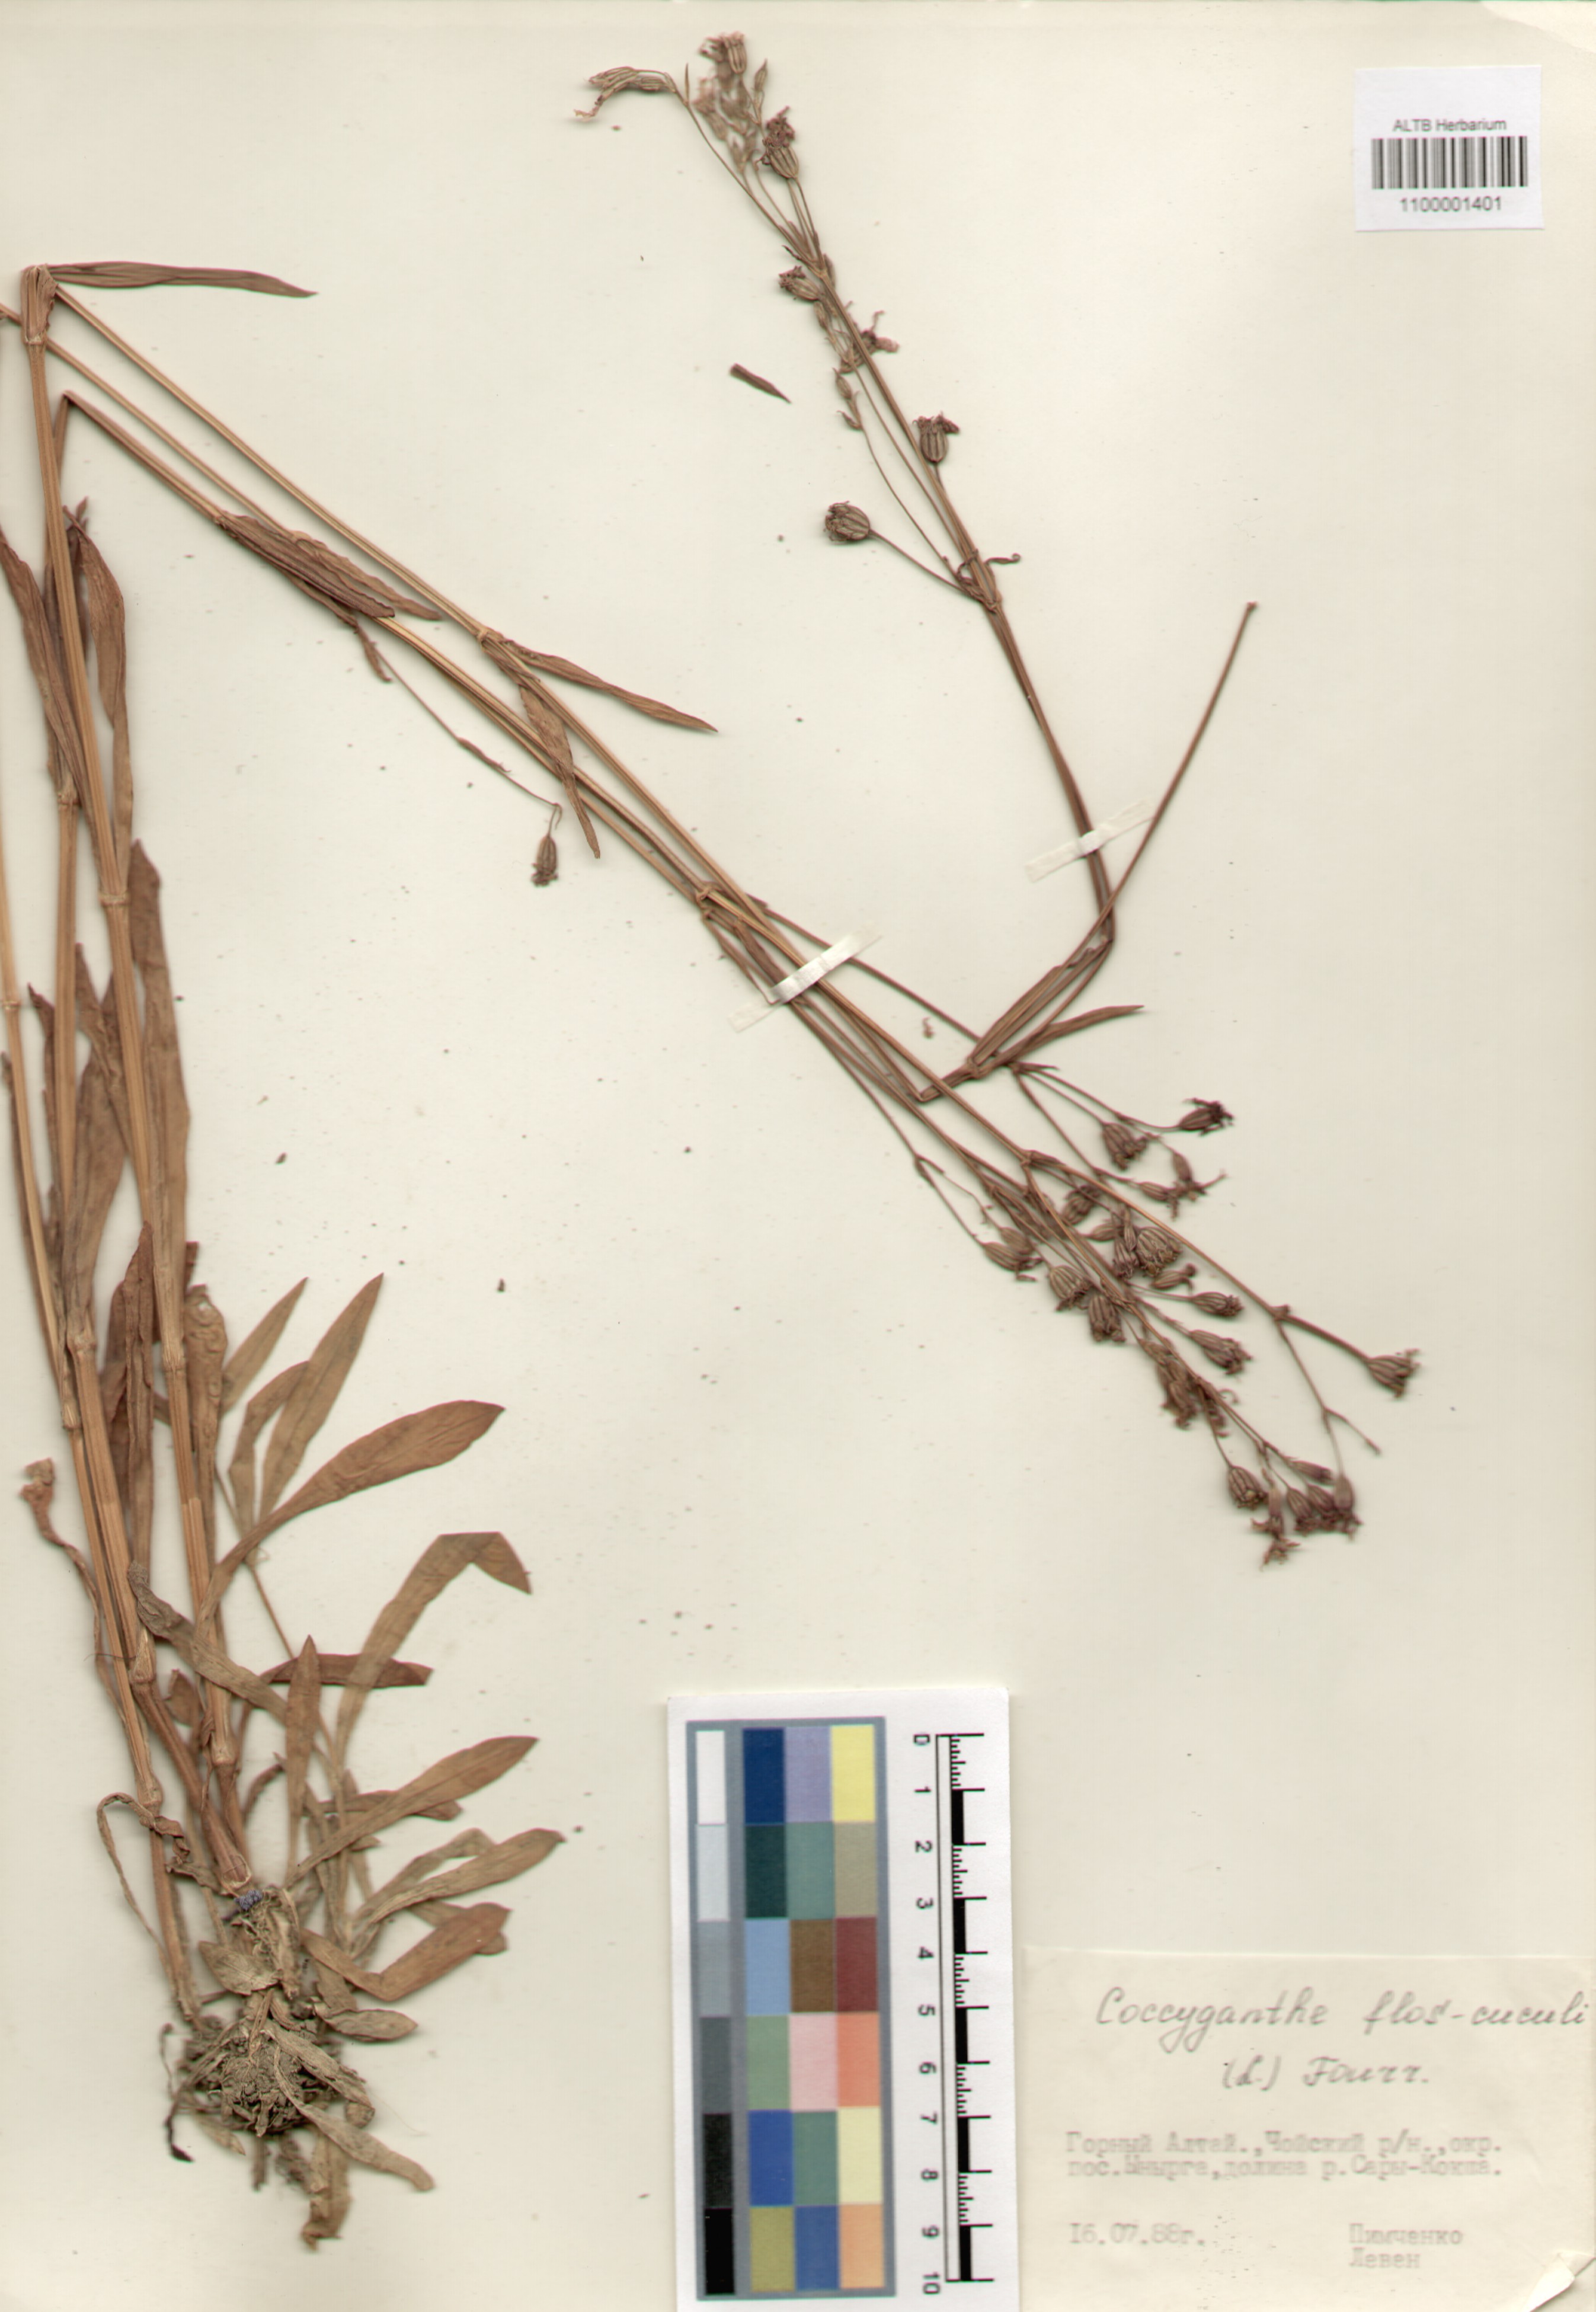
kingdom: Plantae
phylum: Tracheophyta
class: Magnoliopsida
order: Caryophyllales
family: Caryophyllaceae
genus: Silene
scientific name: Silene flos-cuculi
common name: Ragged-robin
